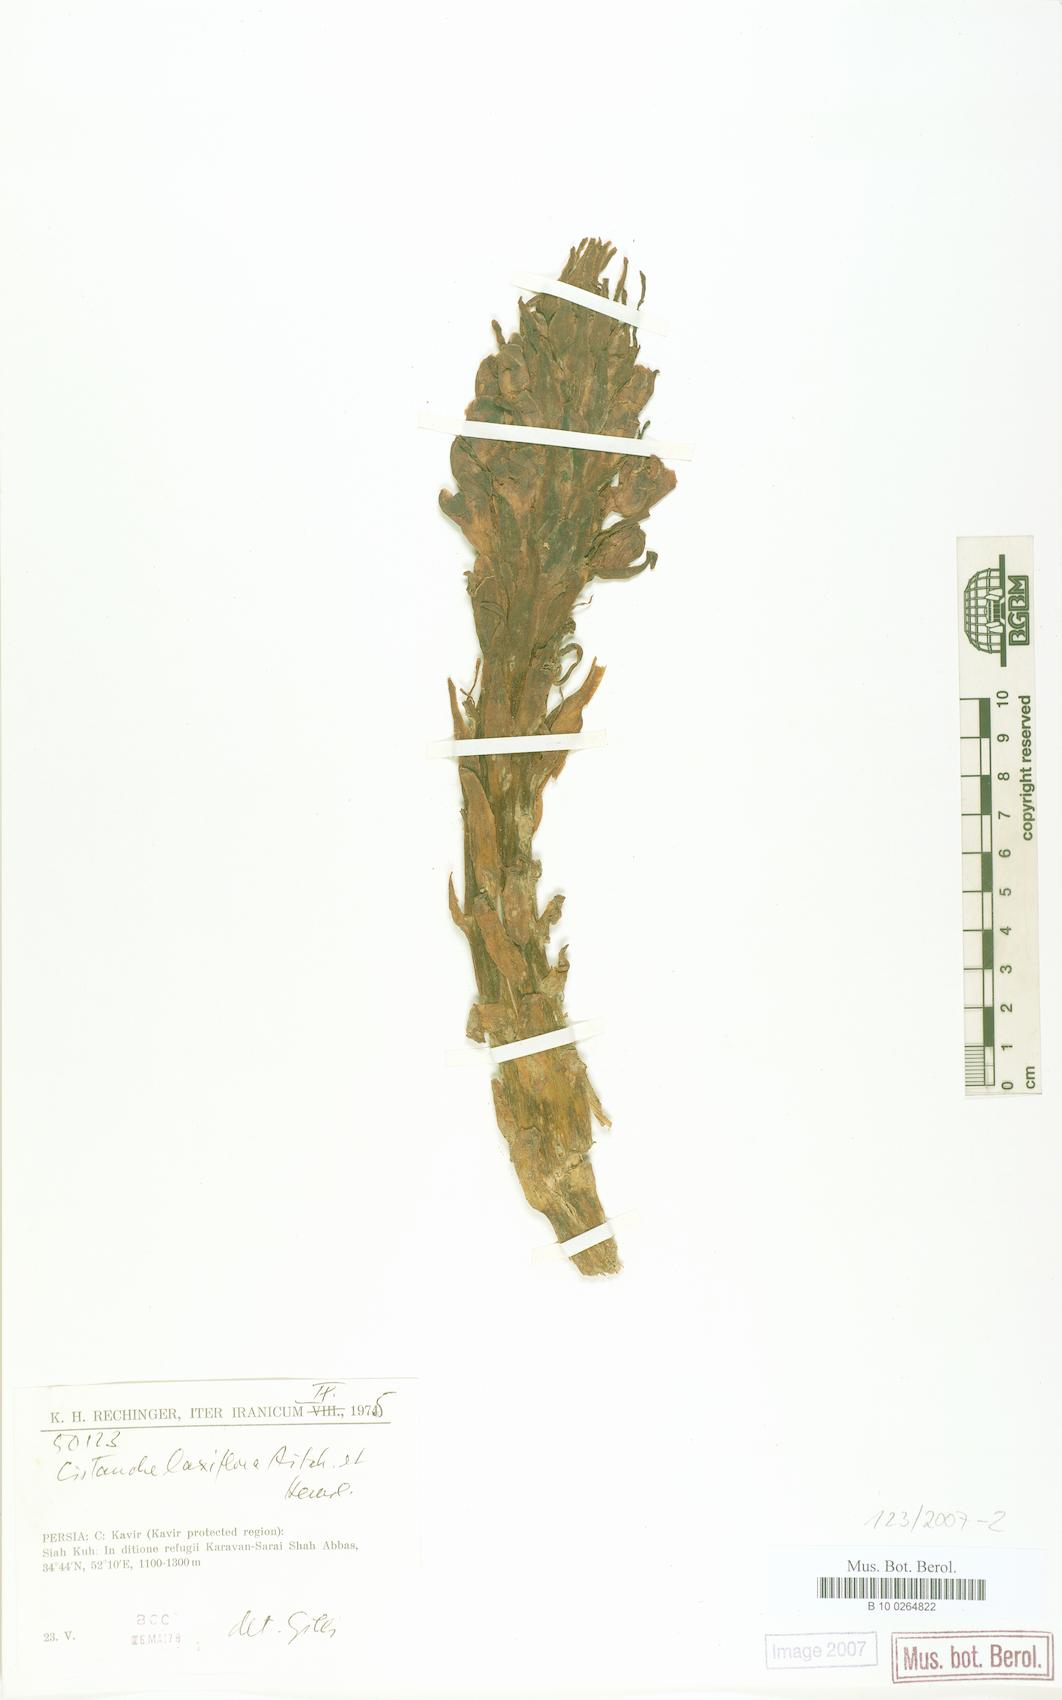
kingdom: Plantae
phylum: Tracheophyta
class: Magnoliopsida
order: Lamiales
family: Orobanchaceae
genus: Cistanche
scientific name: Cistanche laxiflora
